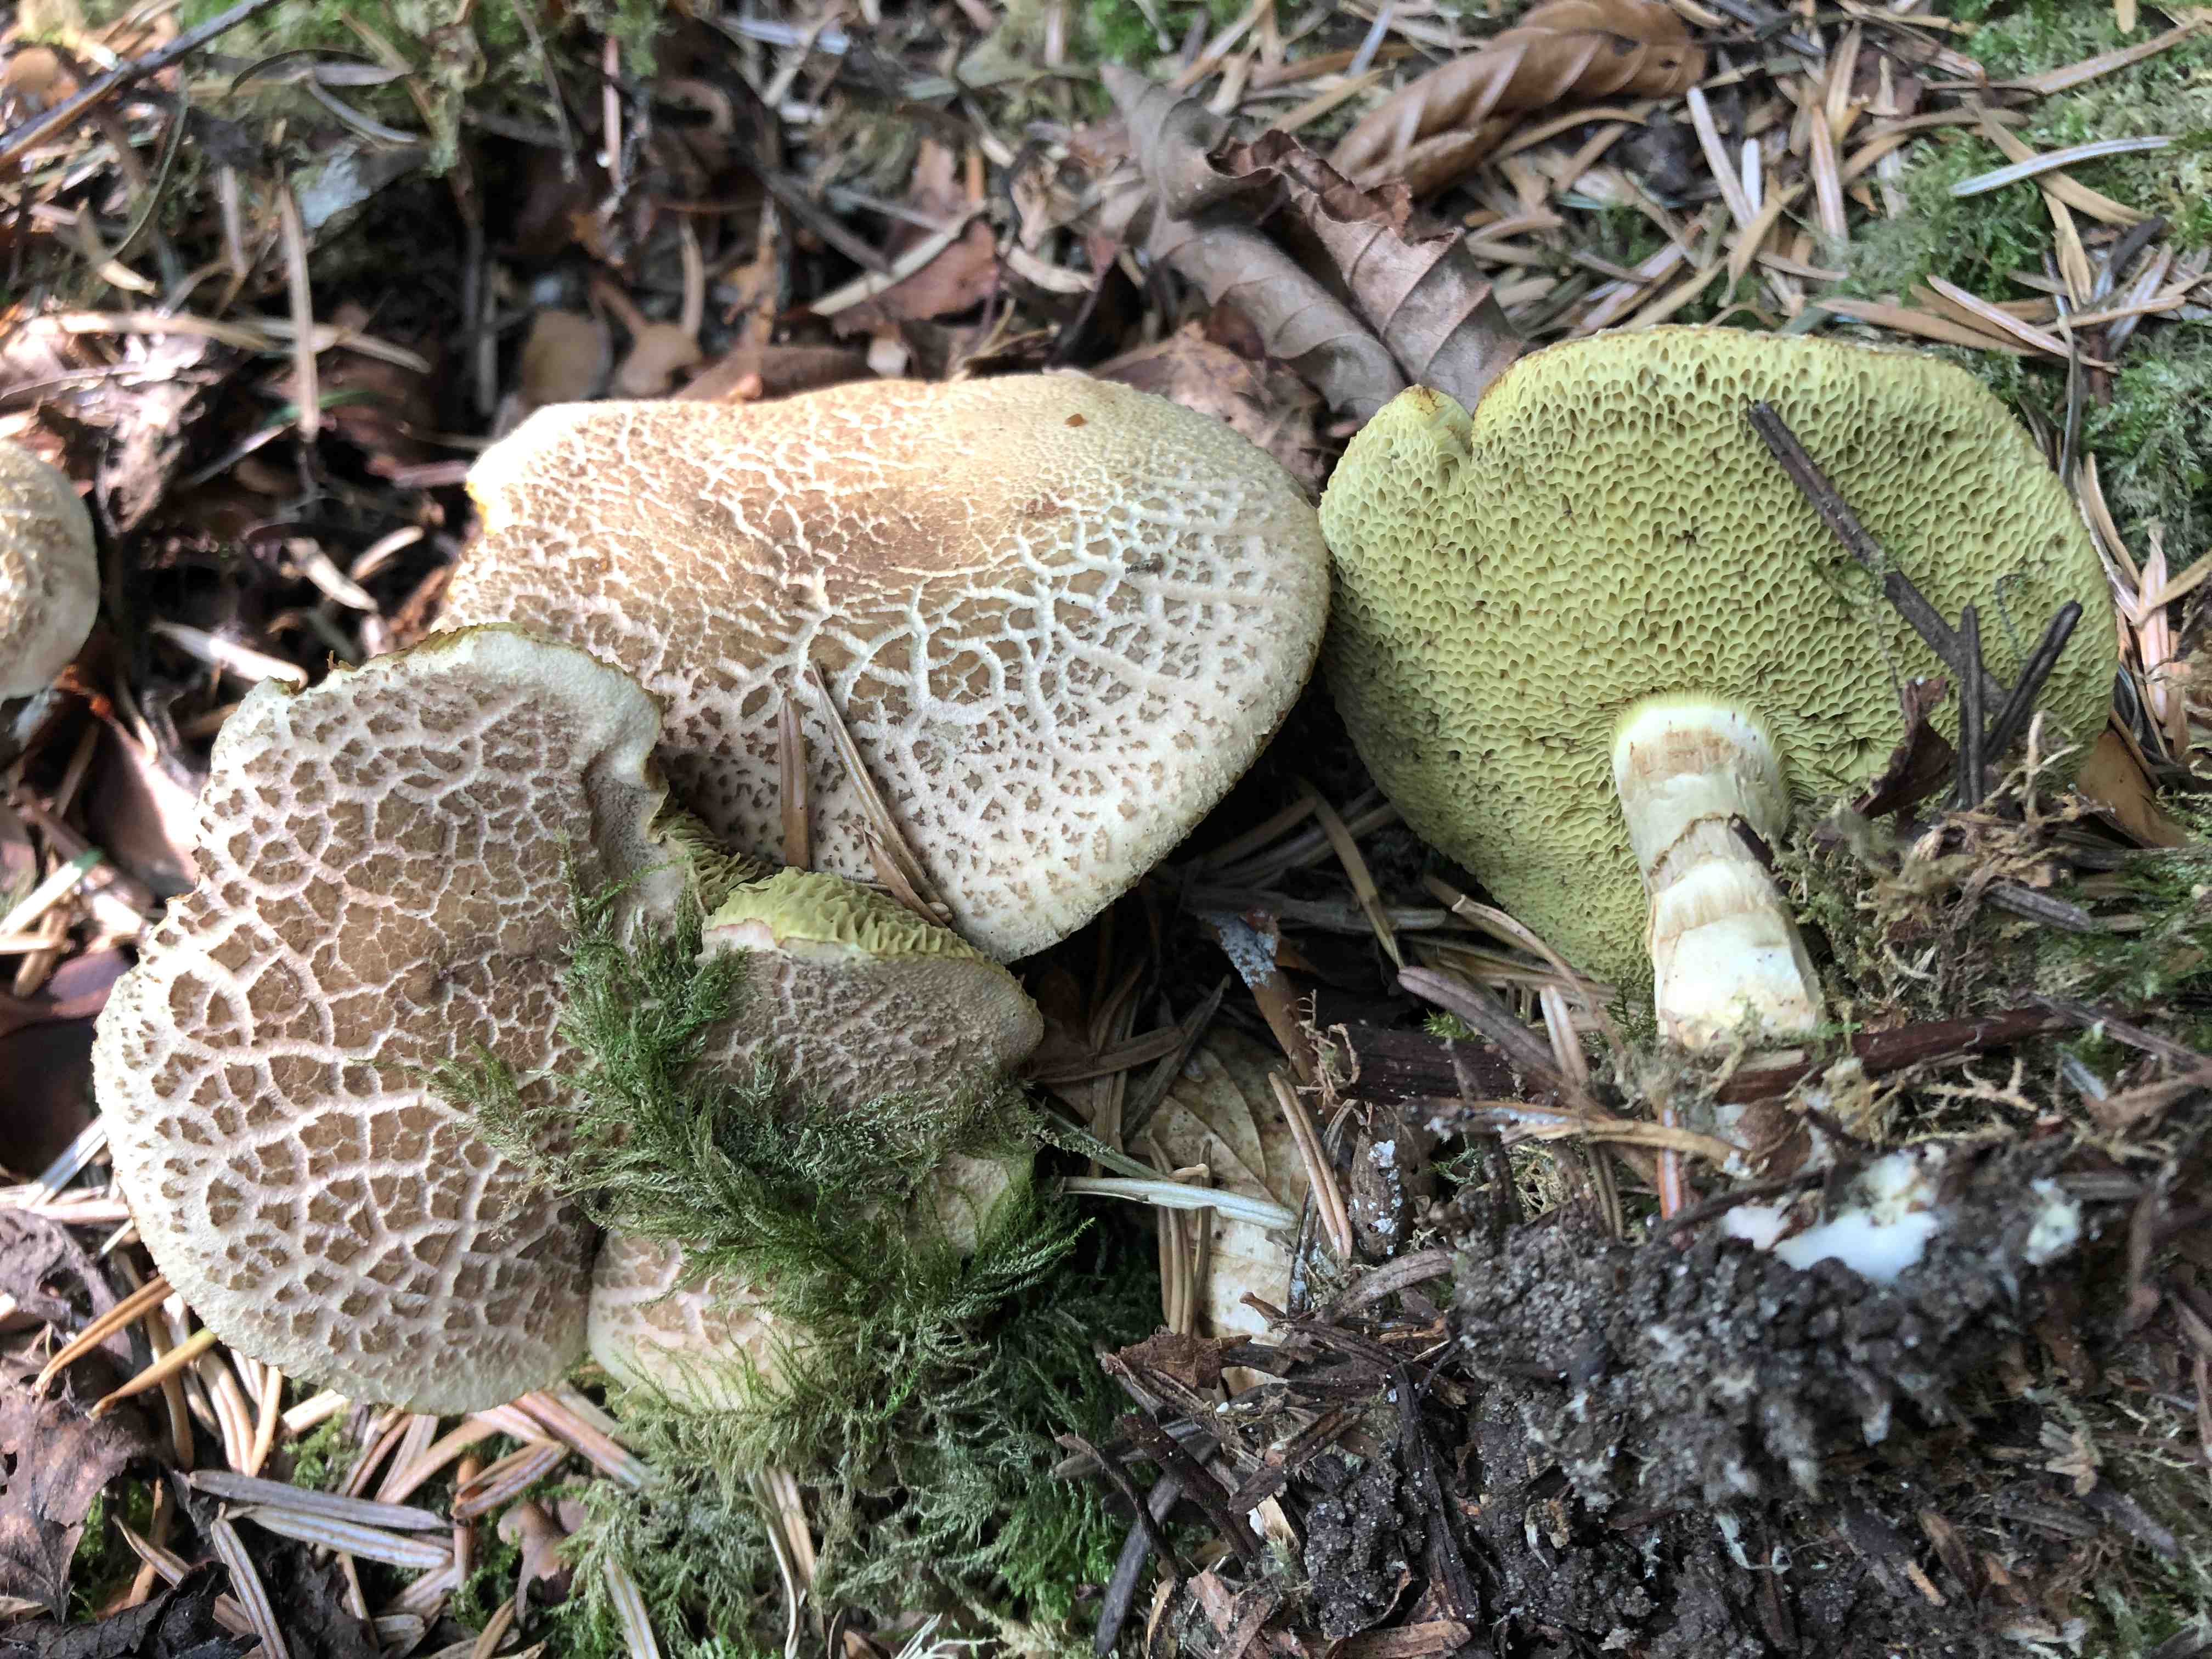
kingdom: Fungi
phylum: Basidiomycota
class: Agaricomycetes
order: Boletales
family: Boletaceae
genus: Xerocomellus
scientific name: Xerocomellus porosporus
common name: hvidsprukken rørhat
